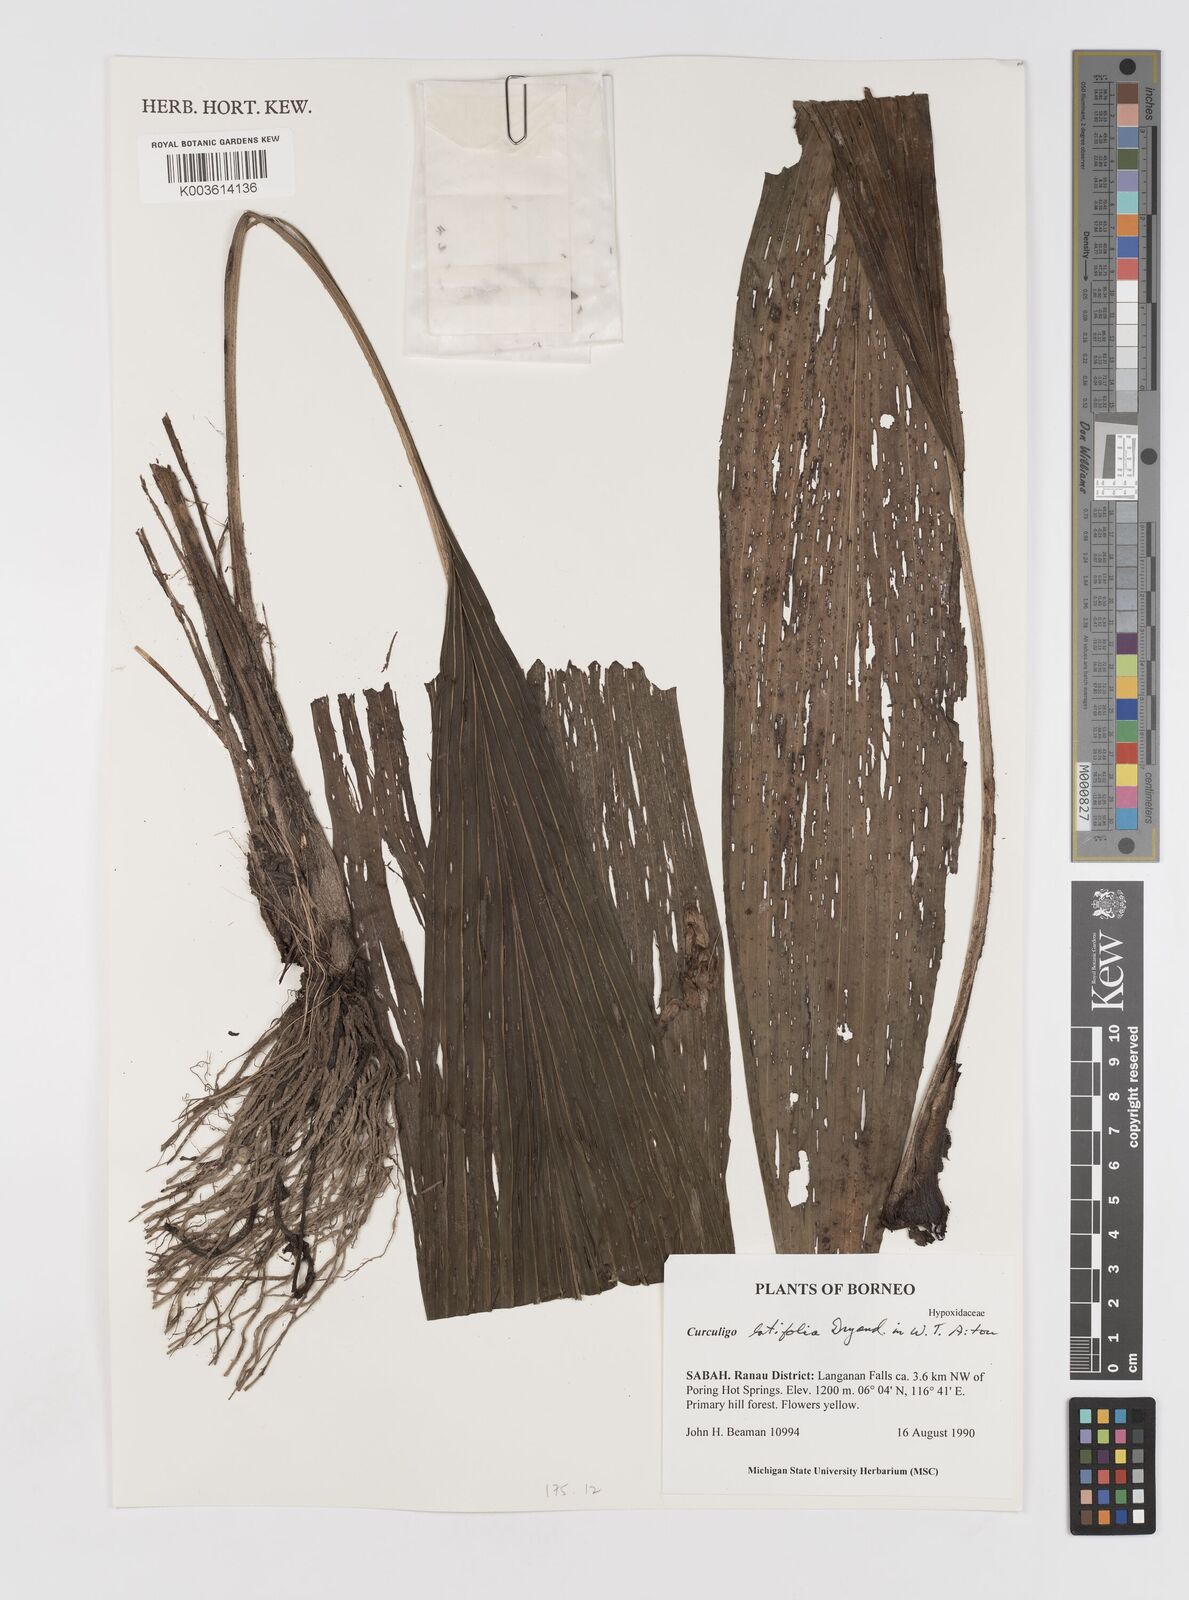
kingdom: Plantae
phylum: Tracheophyta
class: Liliopsida
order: Asparagales
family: Hypoxidaceae
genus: Curculigo
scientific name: Curculigo latifolia
